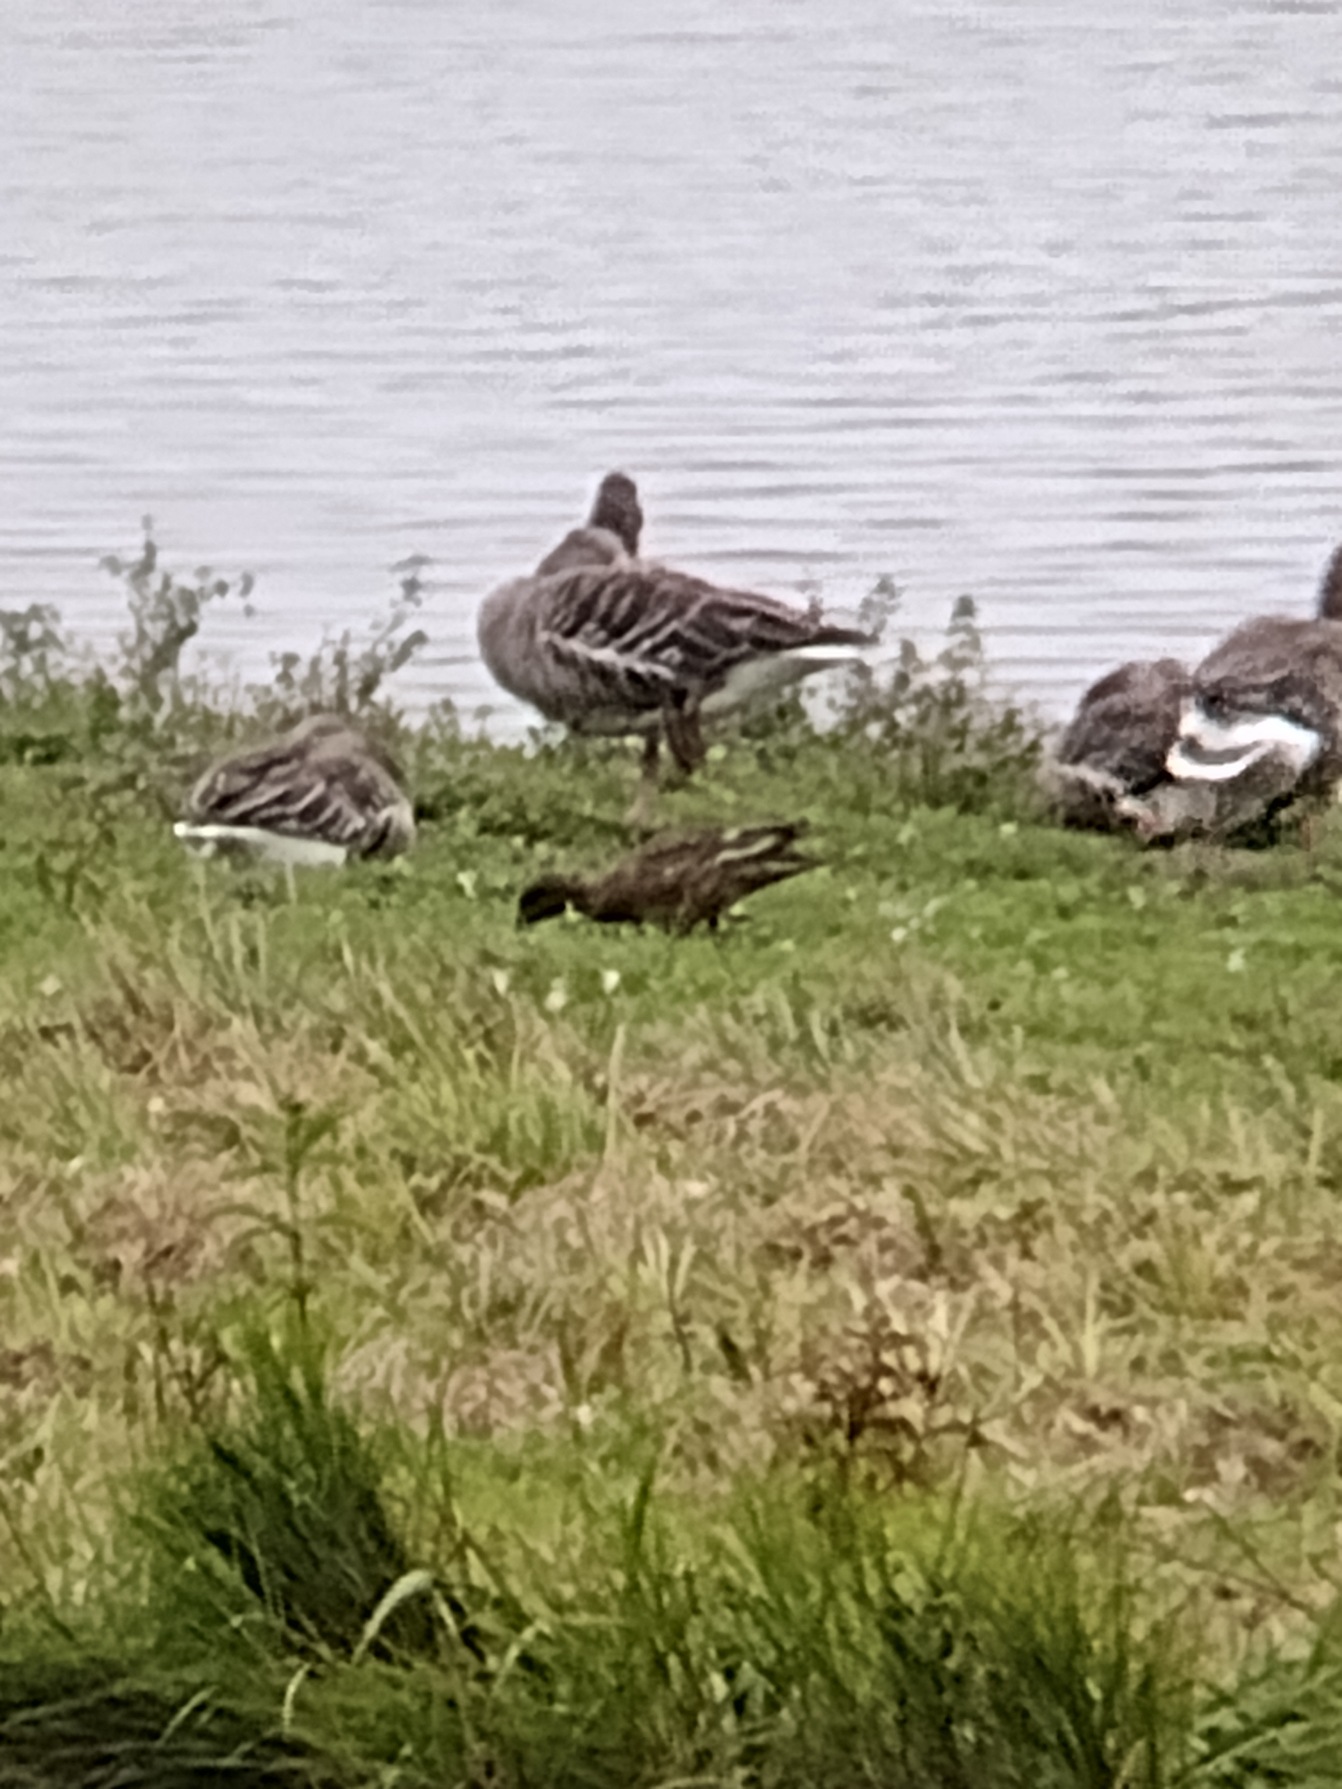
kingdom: Animalia
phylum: Chordata
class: Aves
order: Anseriformes
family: Anatidae
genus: Mareca
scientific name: Mareca penelope
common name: Pibeand
